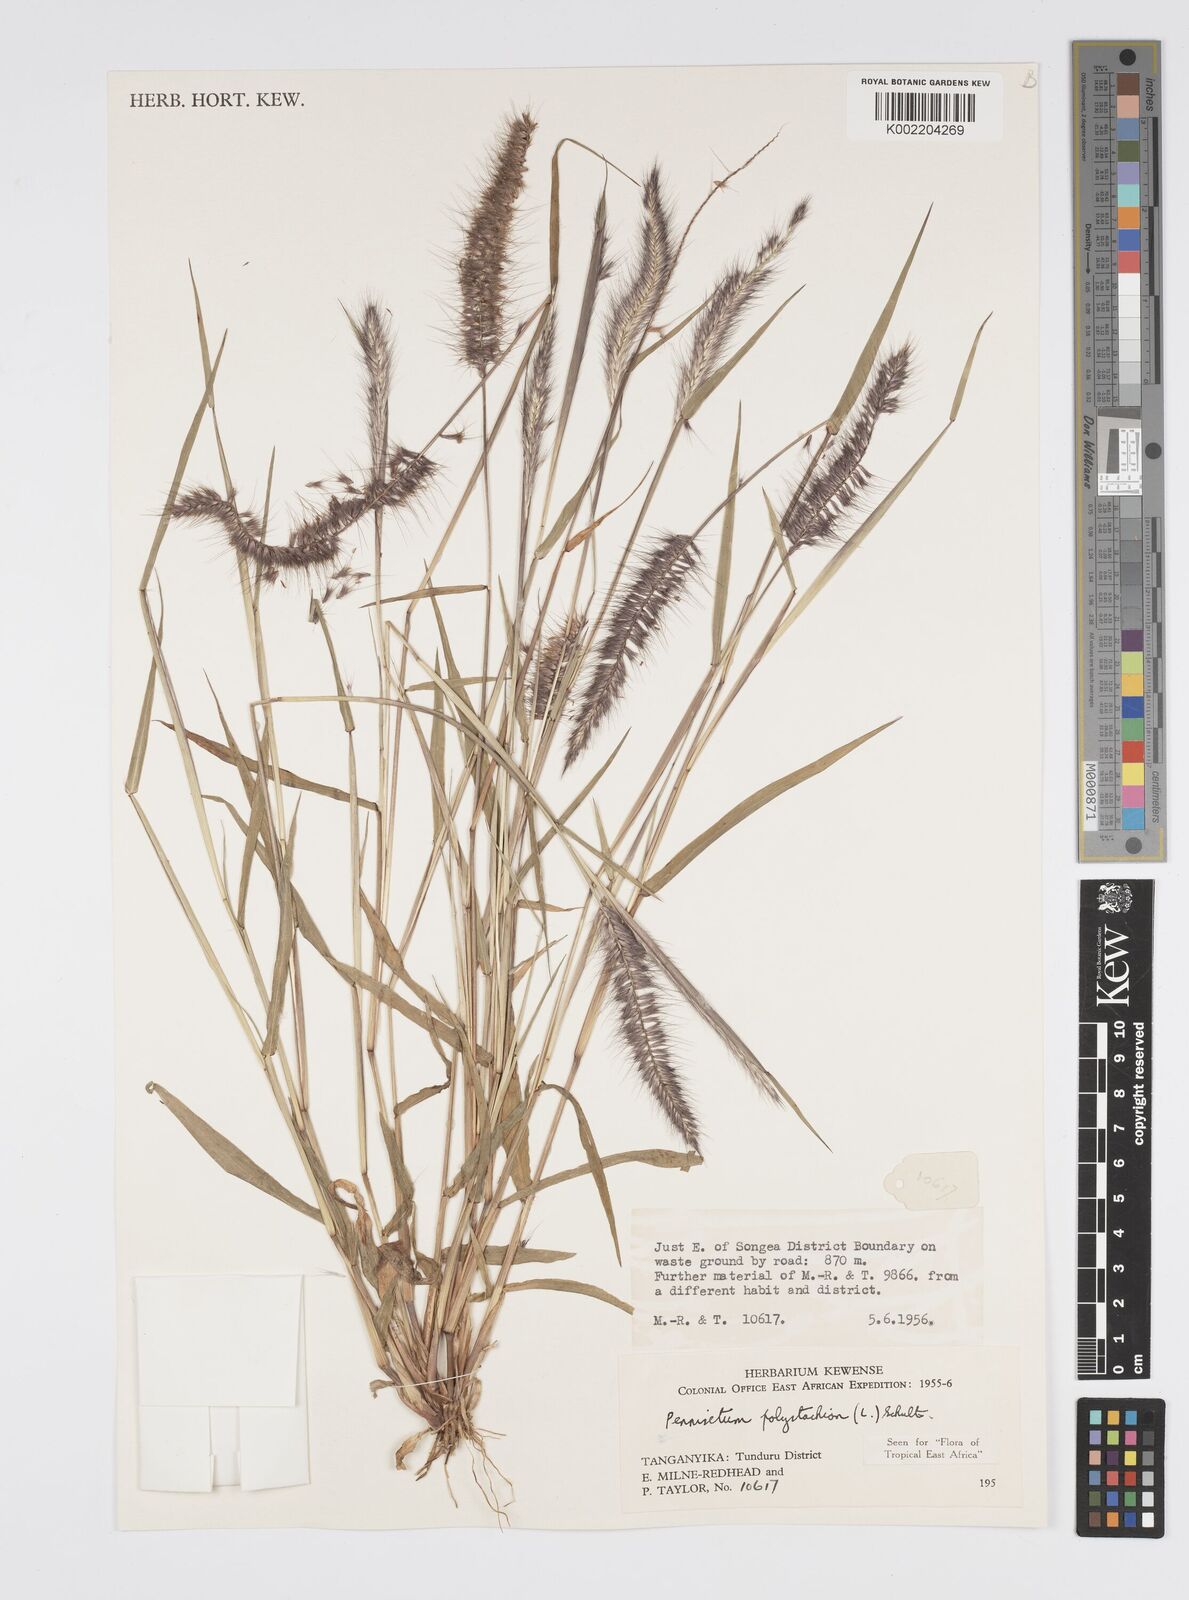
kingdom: Plantae
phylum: Tracheophyta
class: Liliopsida
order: Poales
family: Poaceae
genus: Setaria
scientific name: Setaria parviflora
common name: Knotroot bristle-grass
